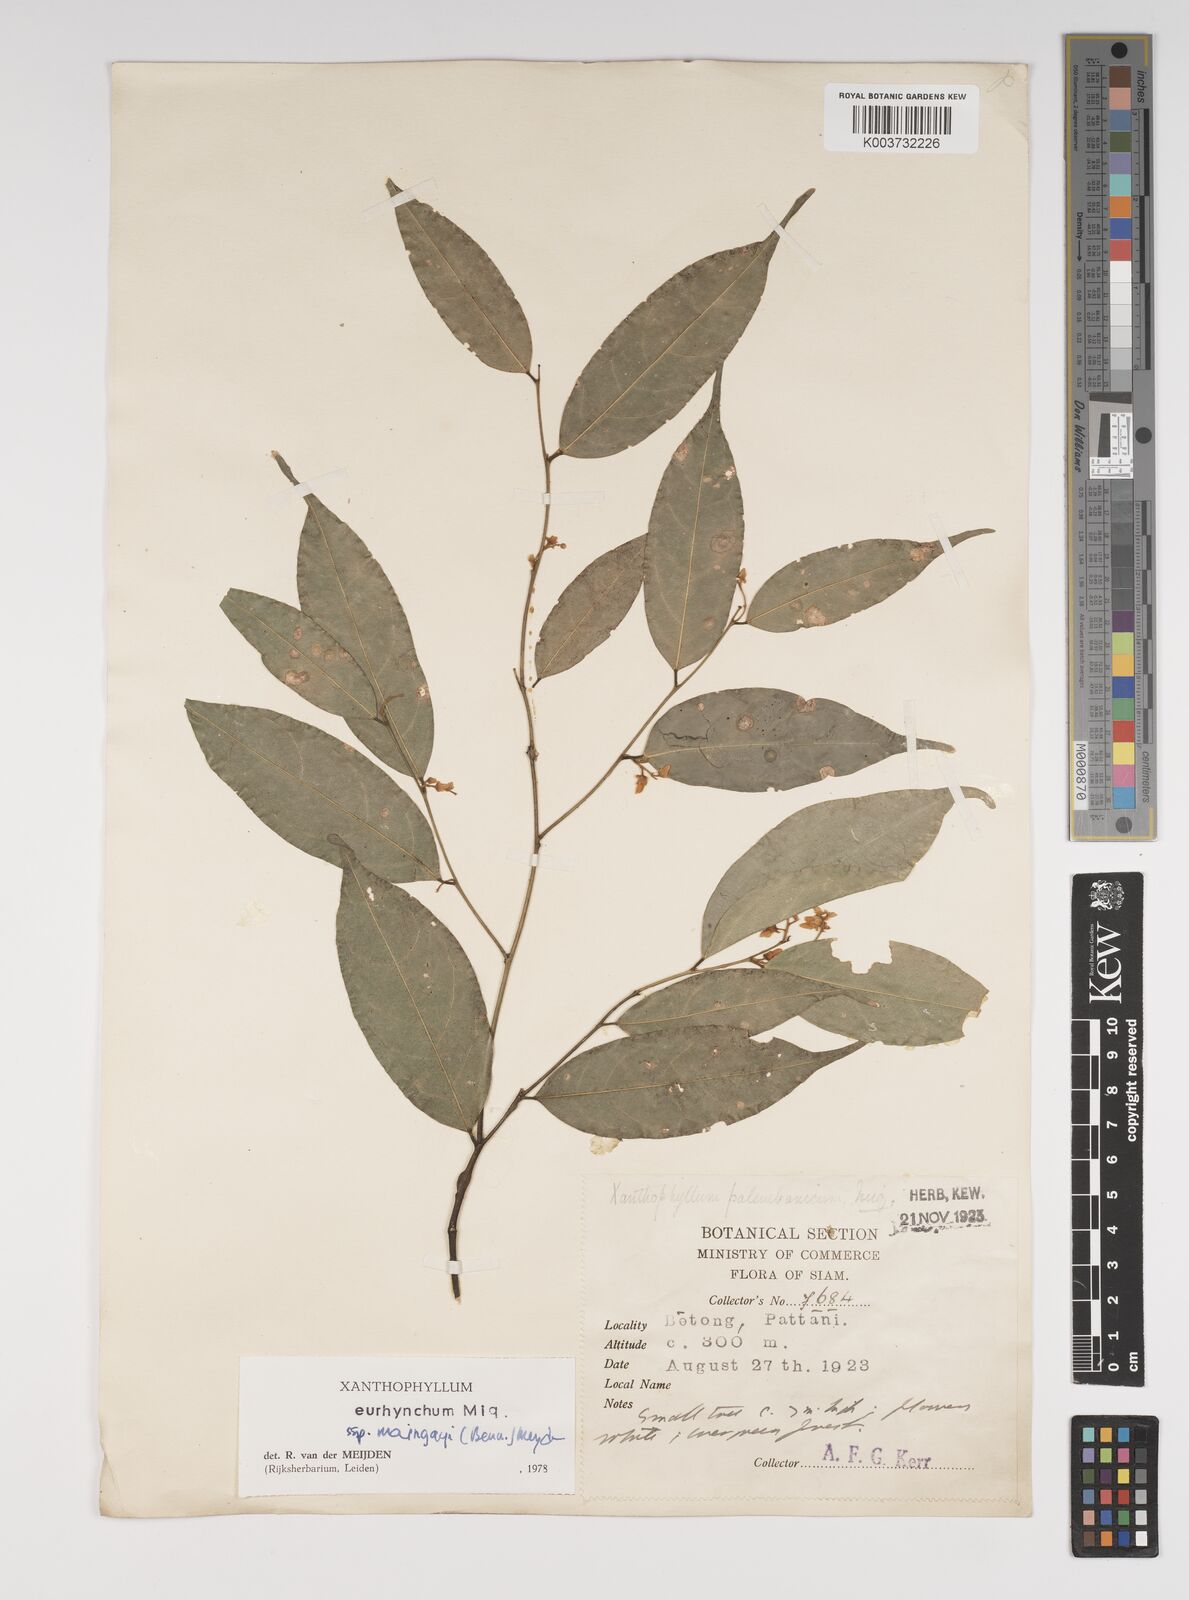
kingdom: Plantae
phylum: Tracheophyta
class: Magnoliopsida
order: Fabales
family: Polygalaceae
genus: Xanthophyllum
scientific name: Xanthophyllum eurhynchum
